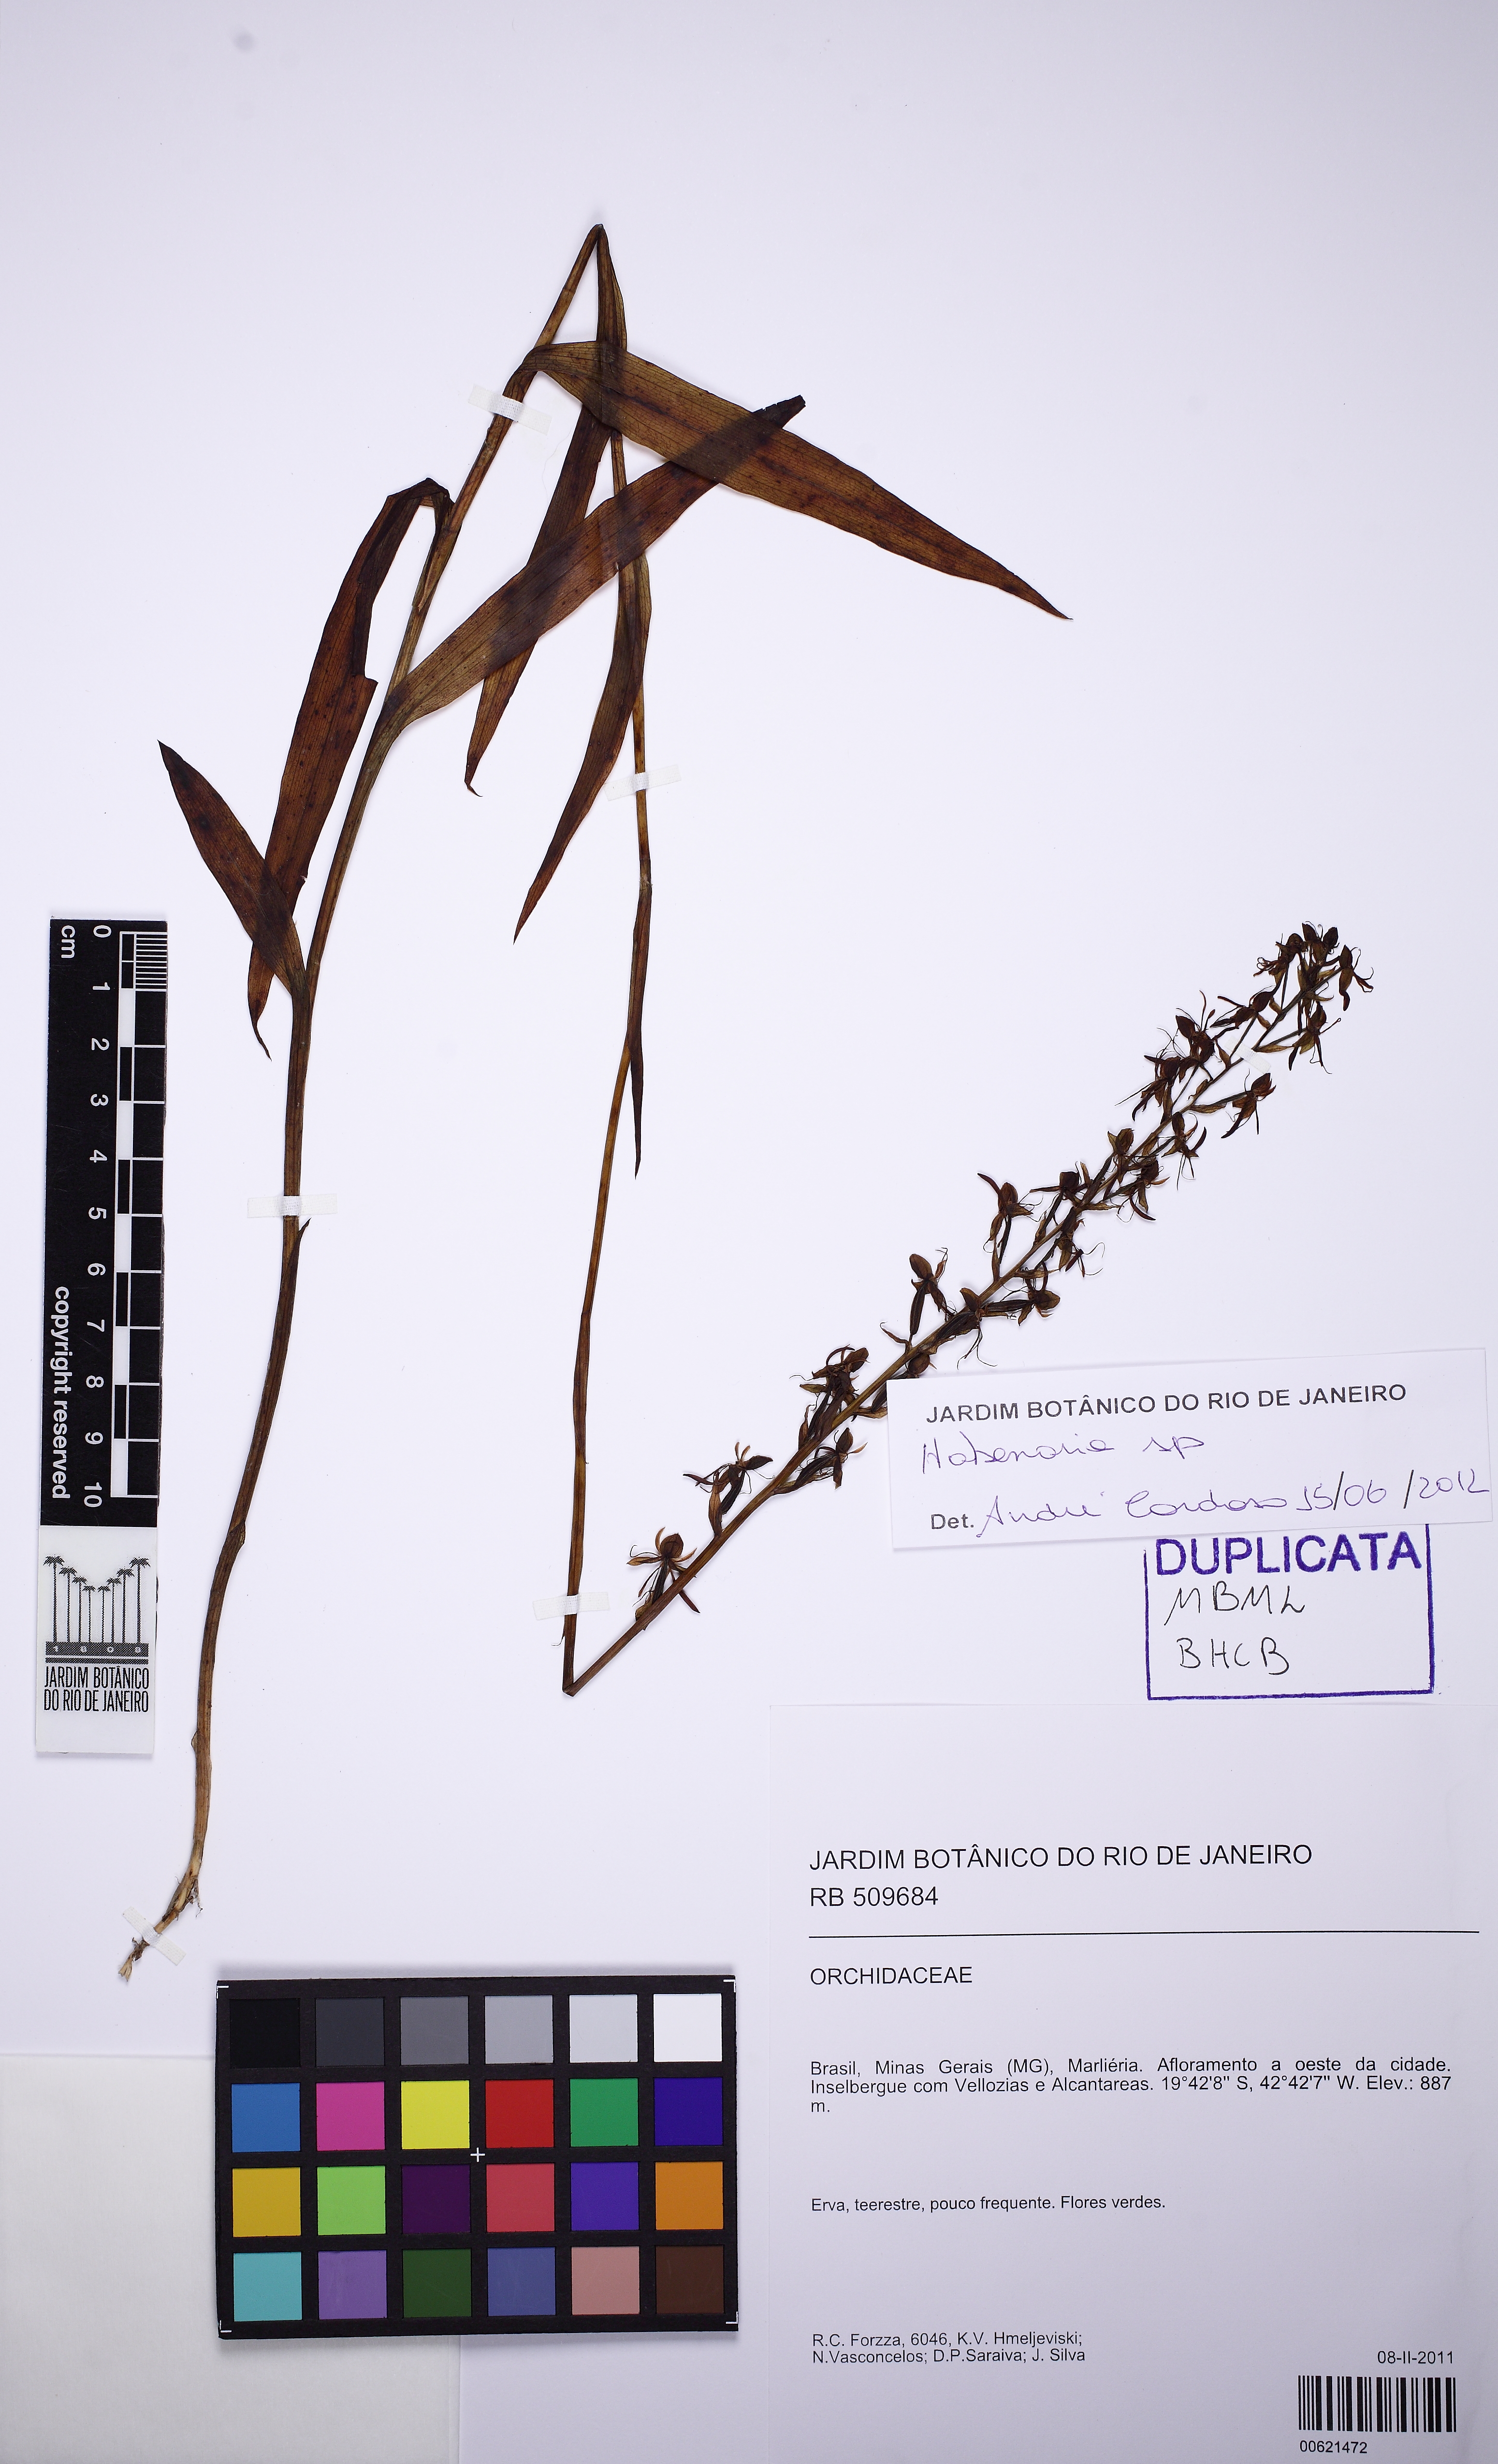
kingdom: Plantae
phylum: Tracheophyta
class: Liliopsida
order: Asparagales
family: Orchidaceae
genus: Habenaria
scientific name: Habenaria rupicola
